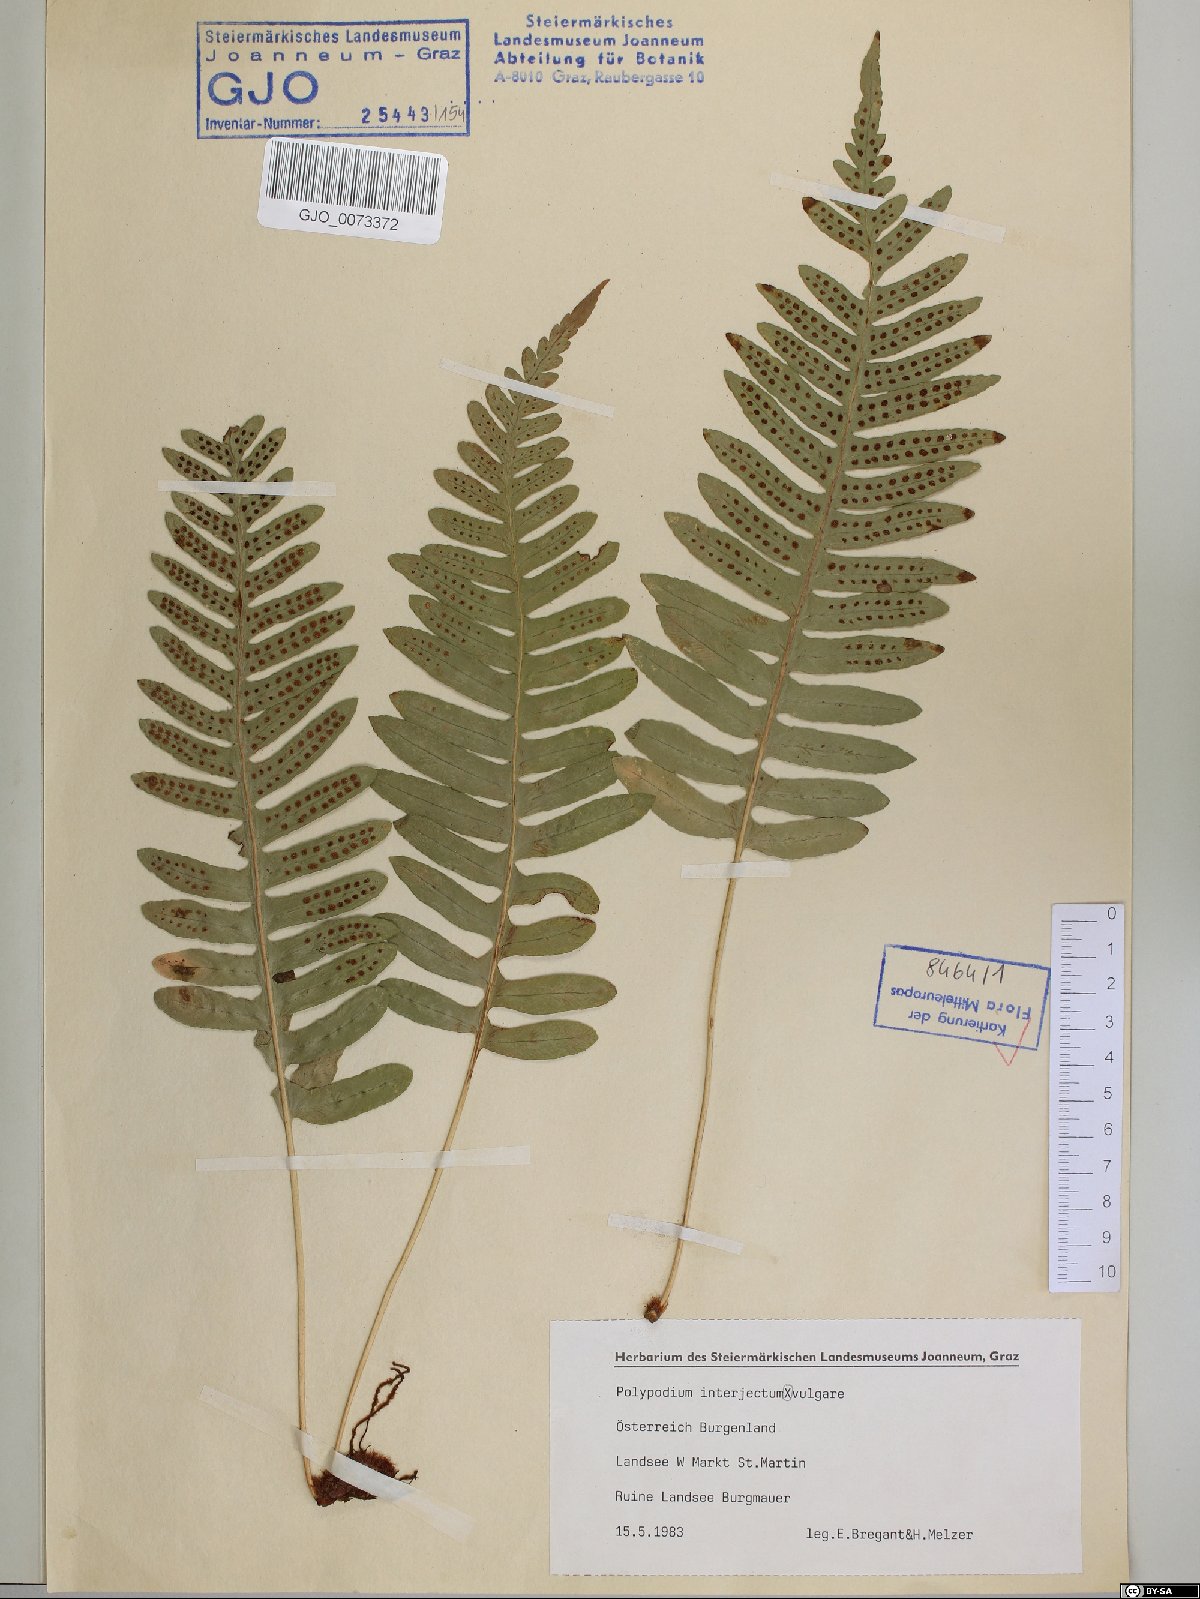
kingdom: Plantae
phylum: Tracheophyta
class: Polypodiopsida
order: Polypodiales
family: Polypodiaceae
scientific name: Polypodiaceae
